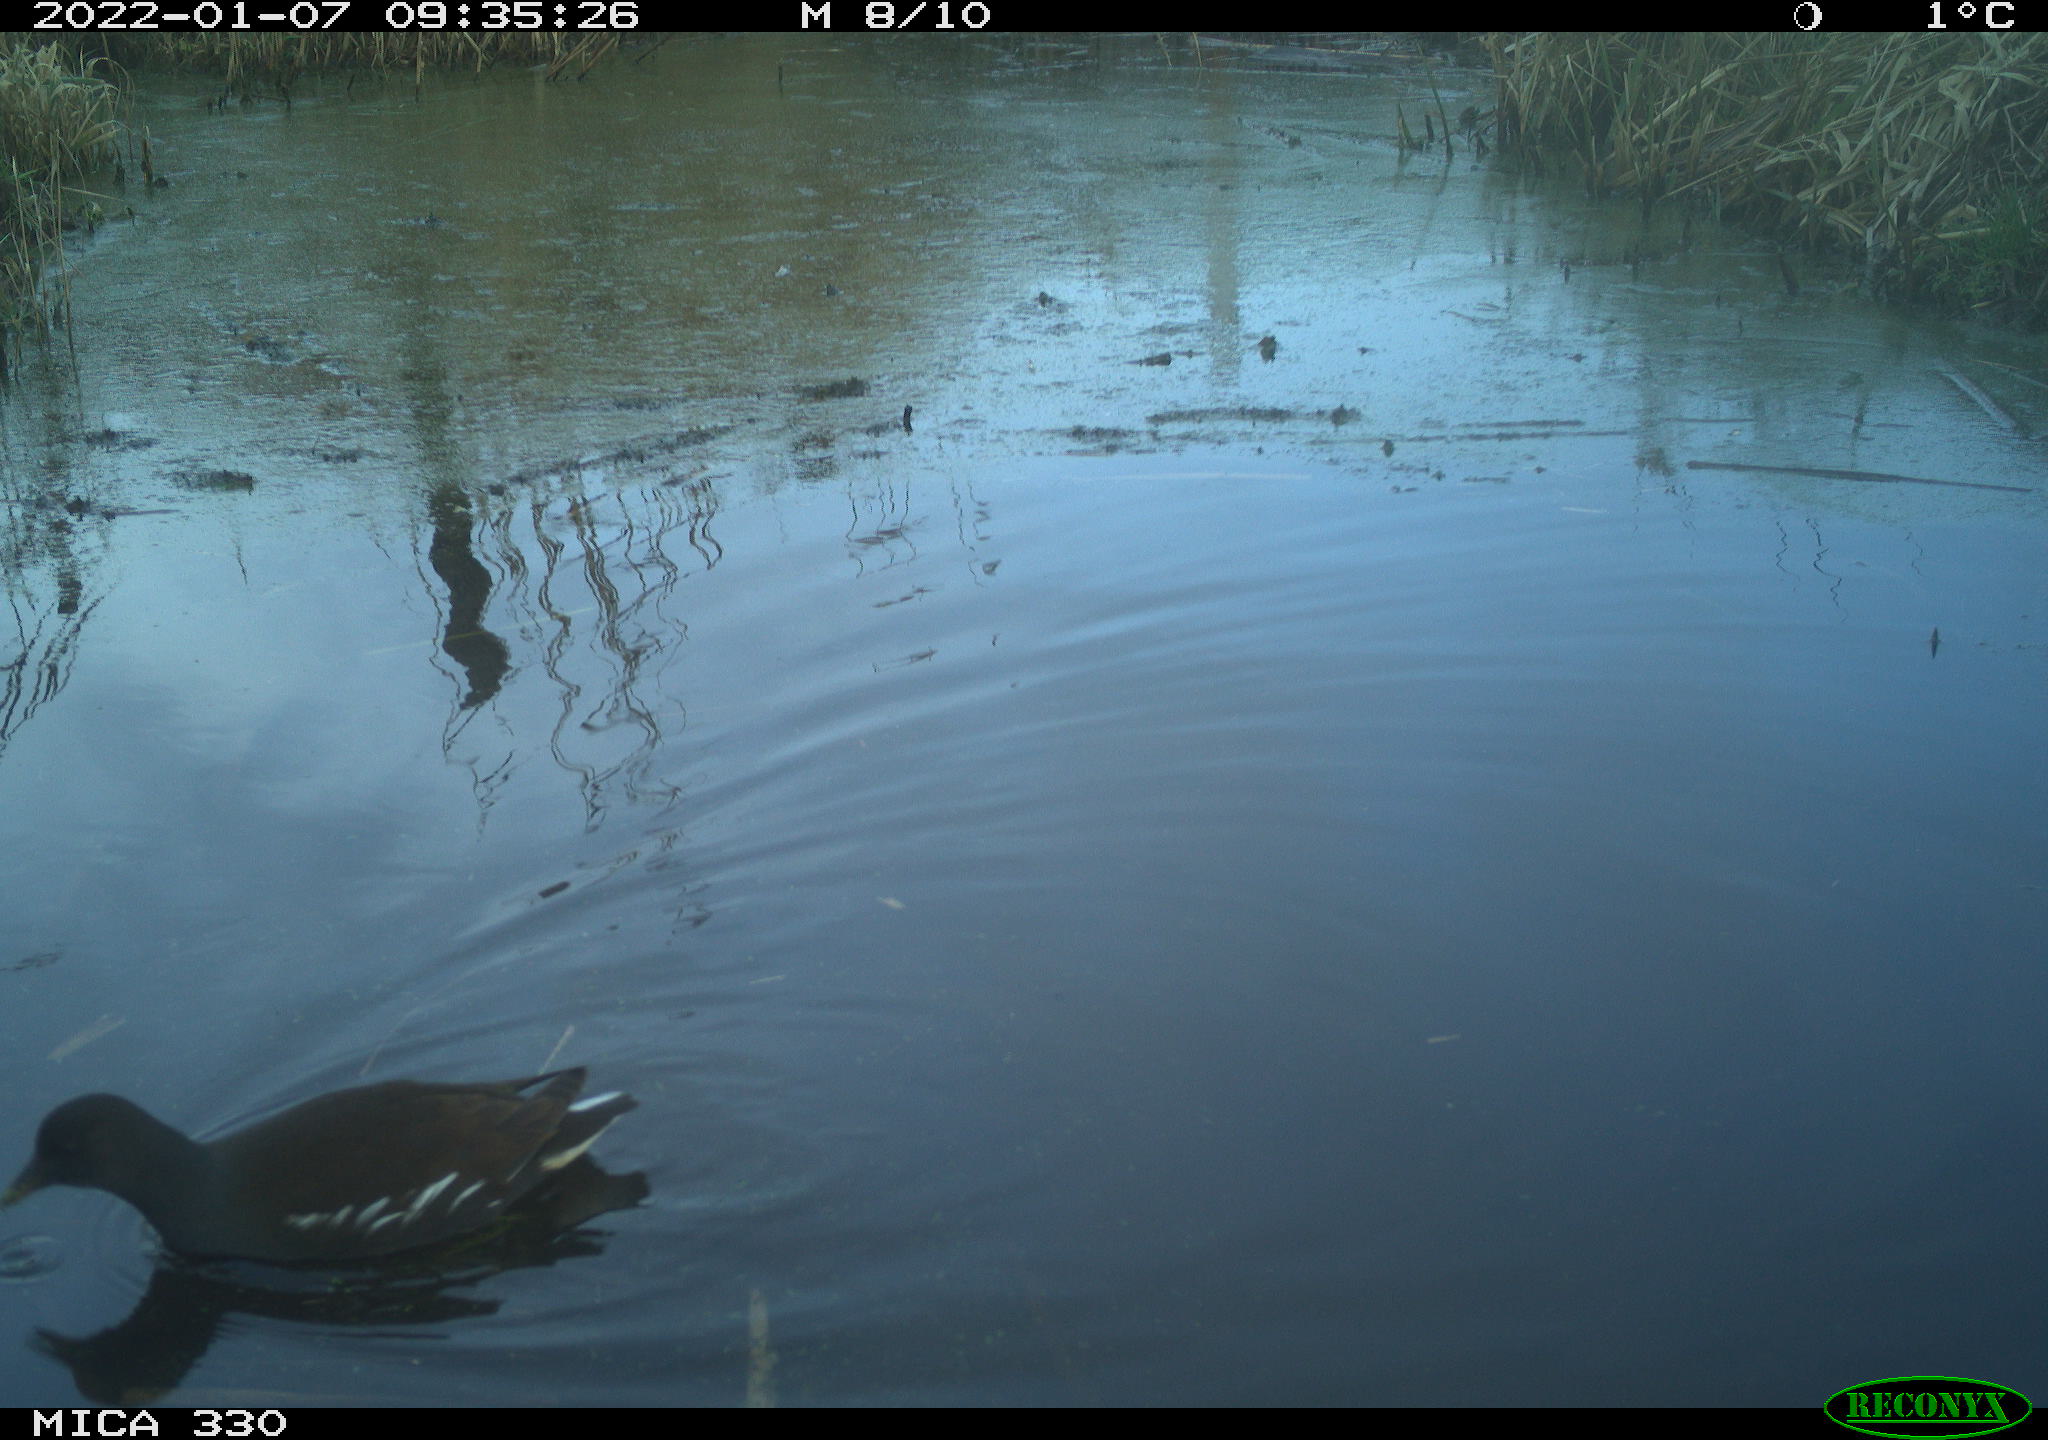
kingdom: Animalia
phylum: Chordata
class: Aves
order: Gruiformes
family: Rallidae
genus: Gallinula
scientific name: Gallinula chloropus
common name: Common moorhen
